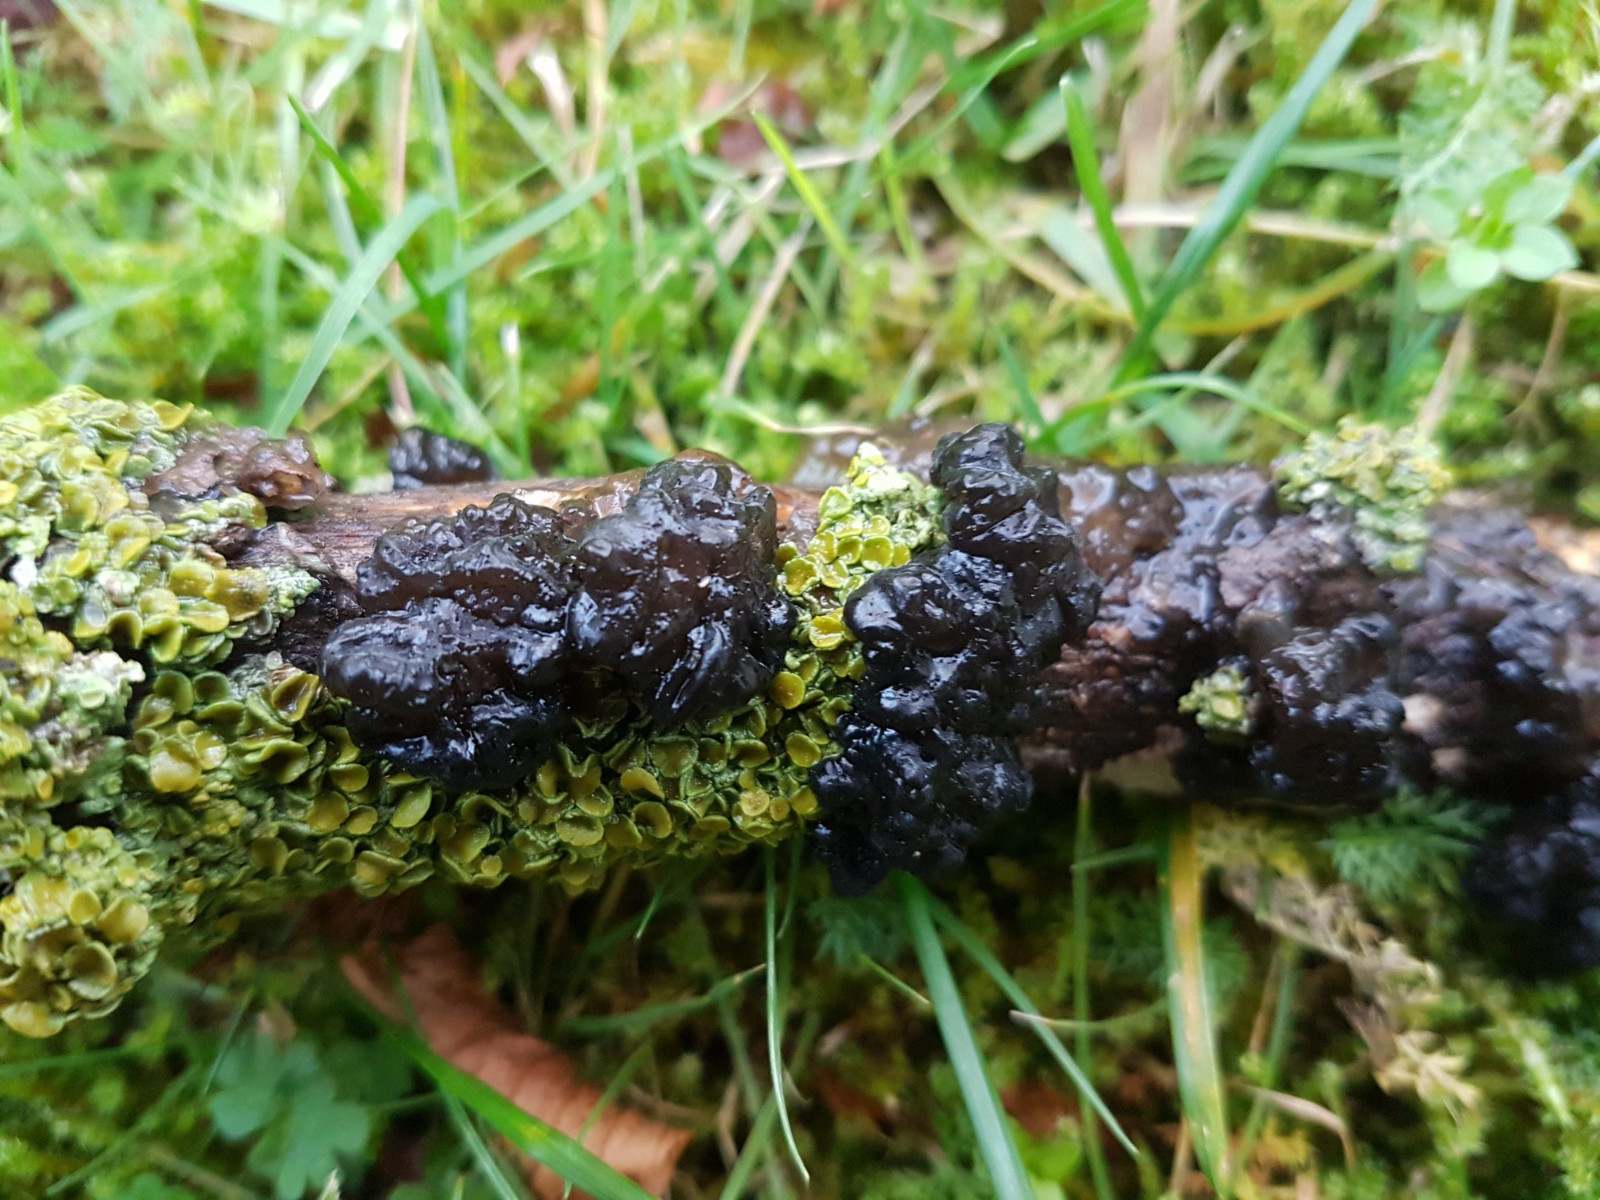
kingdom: Fungi
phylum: Basidiomycota
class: Agaricomycetes
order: Auriculariales
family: Auriculariaceae
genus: Exidia
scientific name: Exidia nigricans
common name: almindelig bævretop
